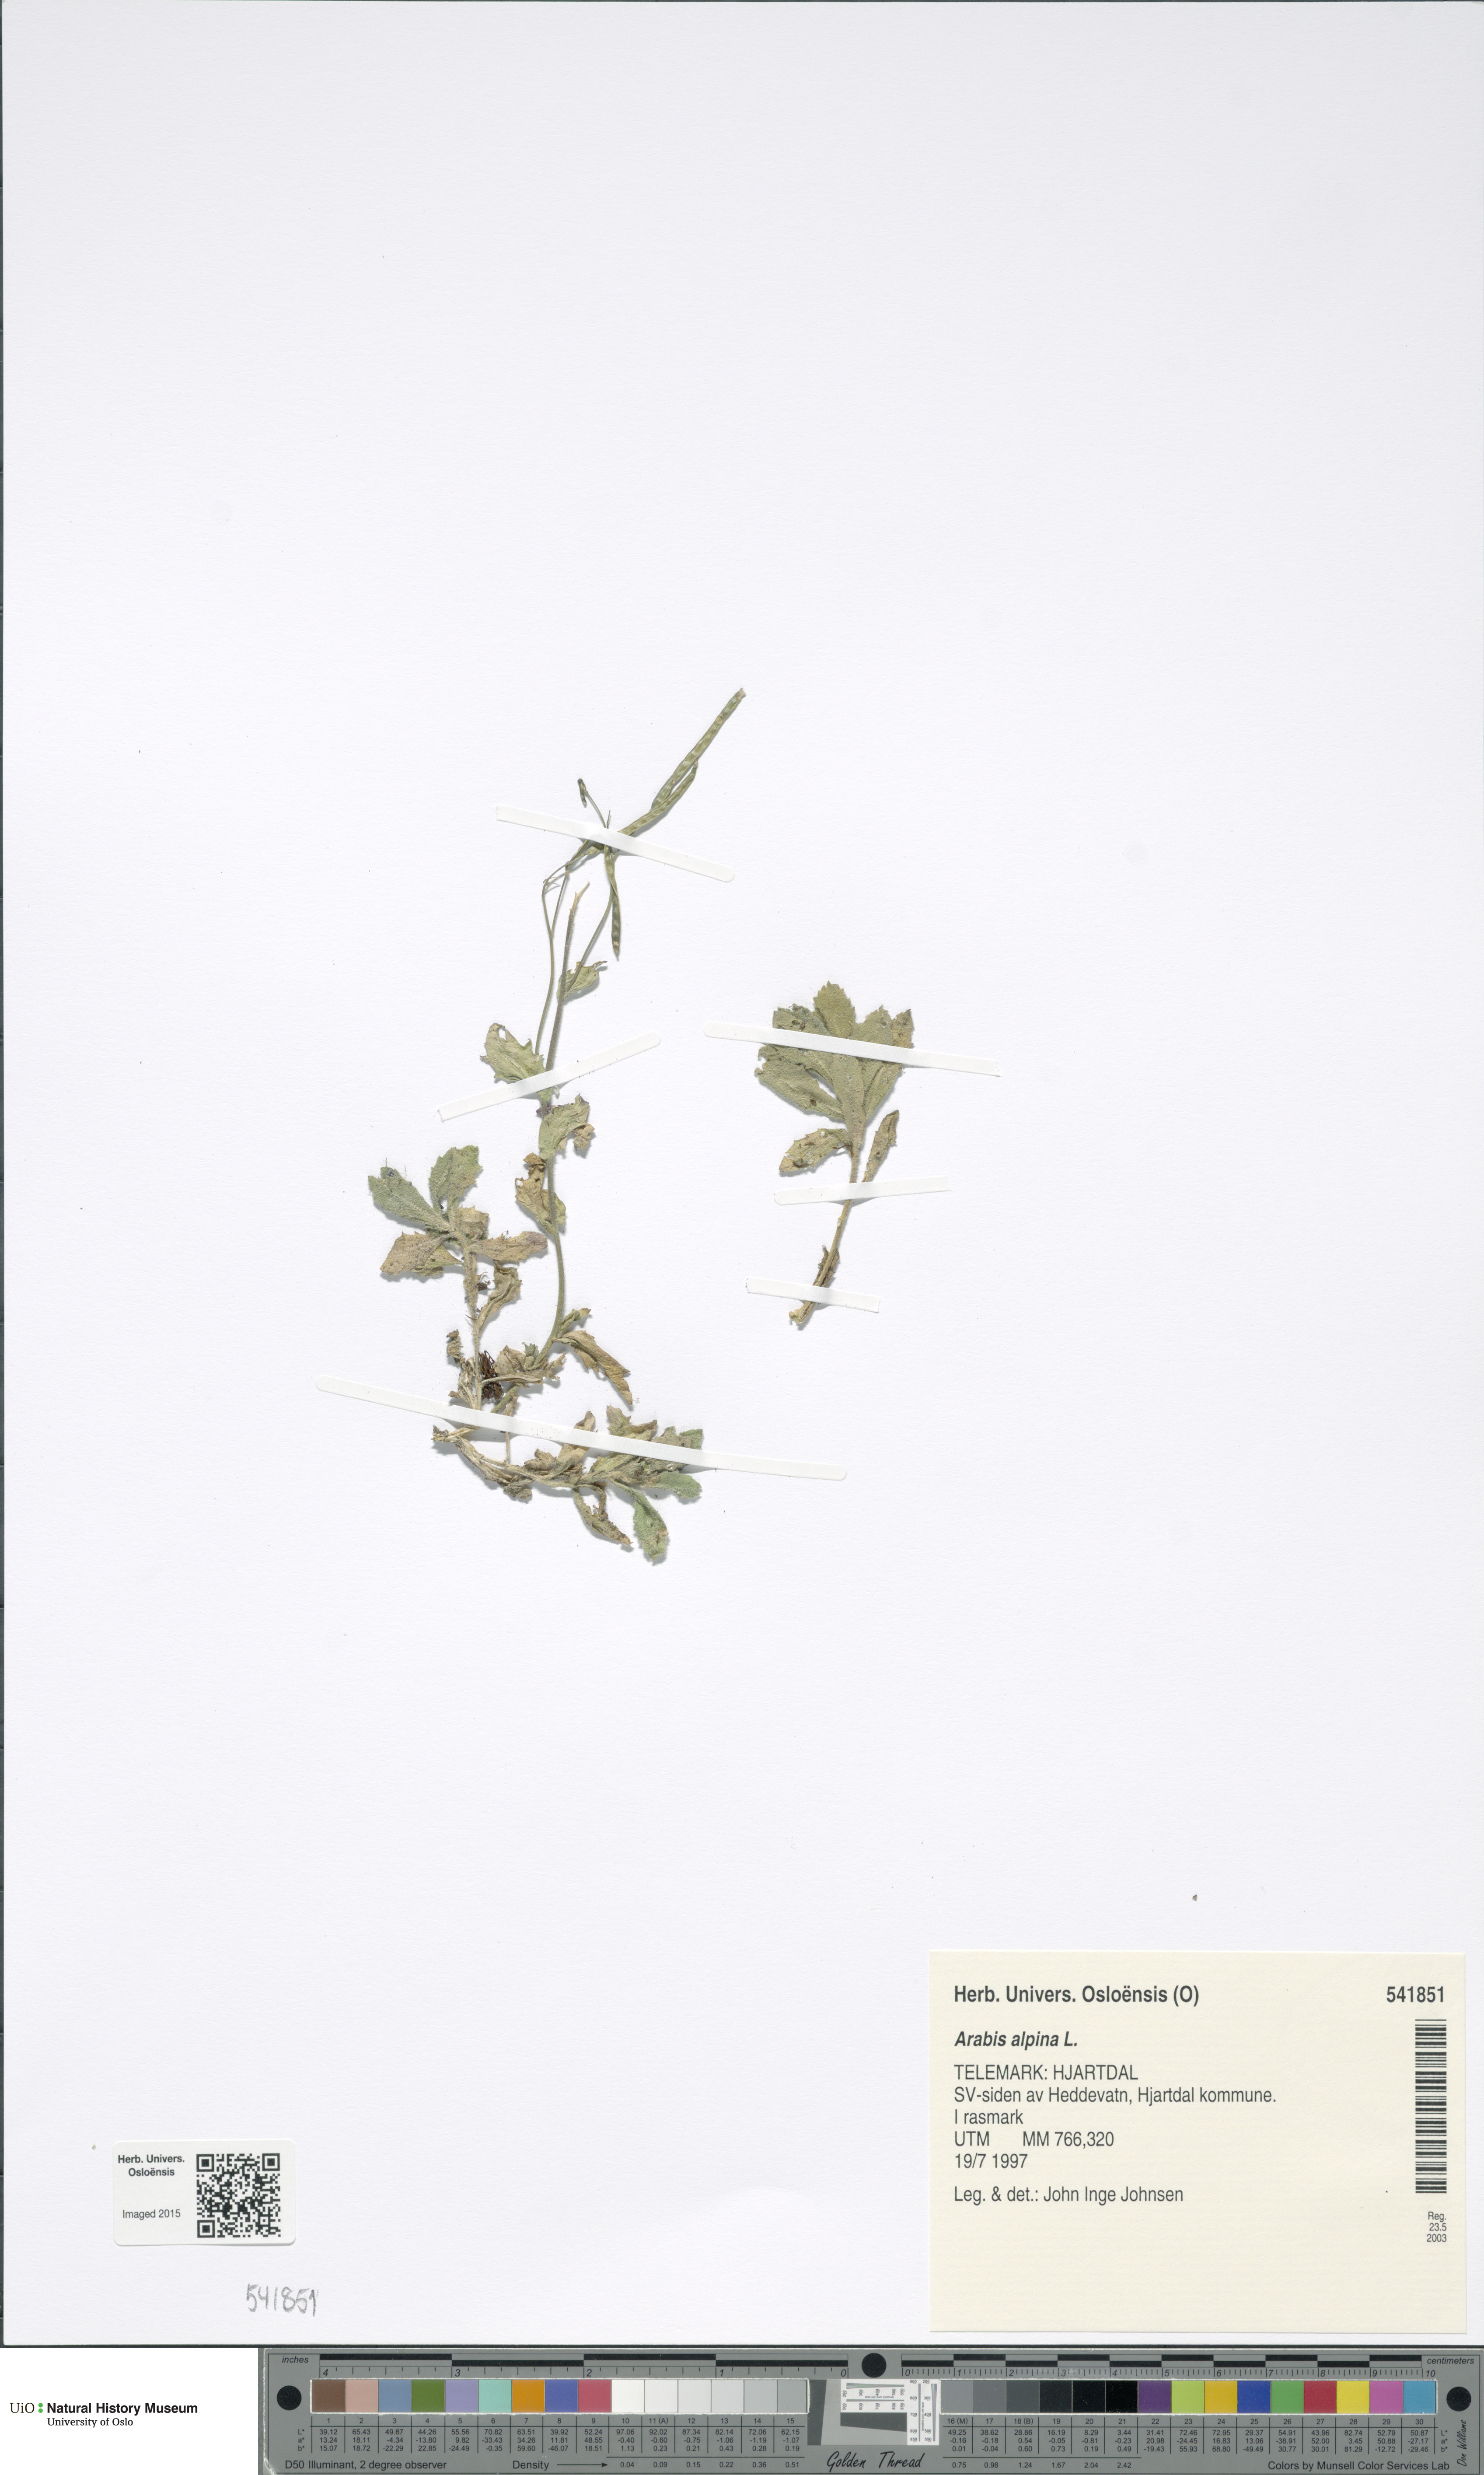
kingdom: Plantae
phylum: Tracheophyta
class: Magnoliopsida
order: Brassicales
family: Brassicaceae
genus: Arabis
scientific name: Arabis alpina
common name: Alpine rock-cress
